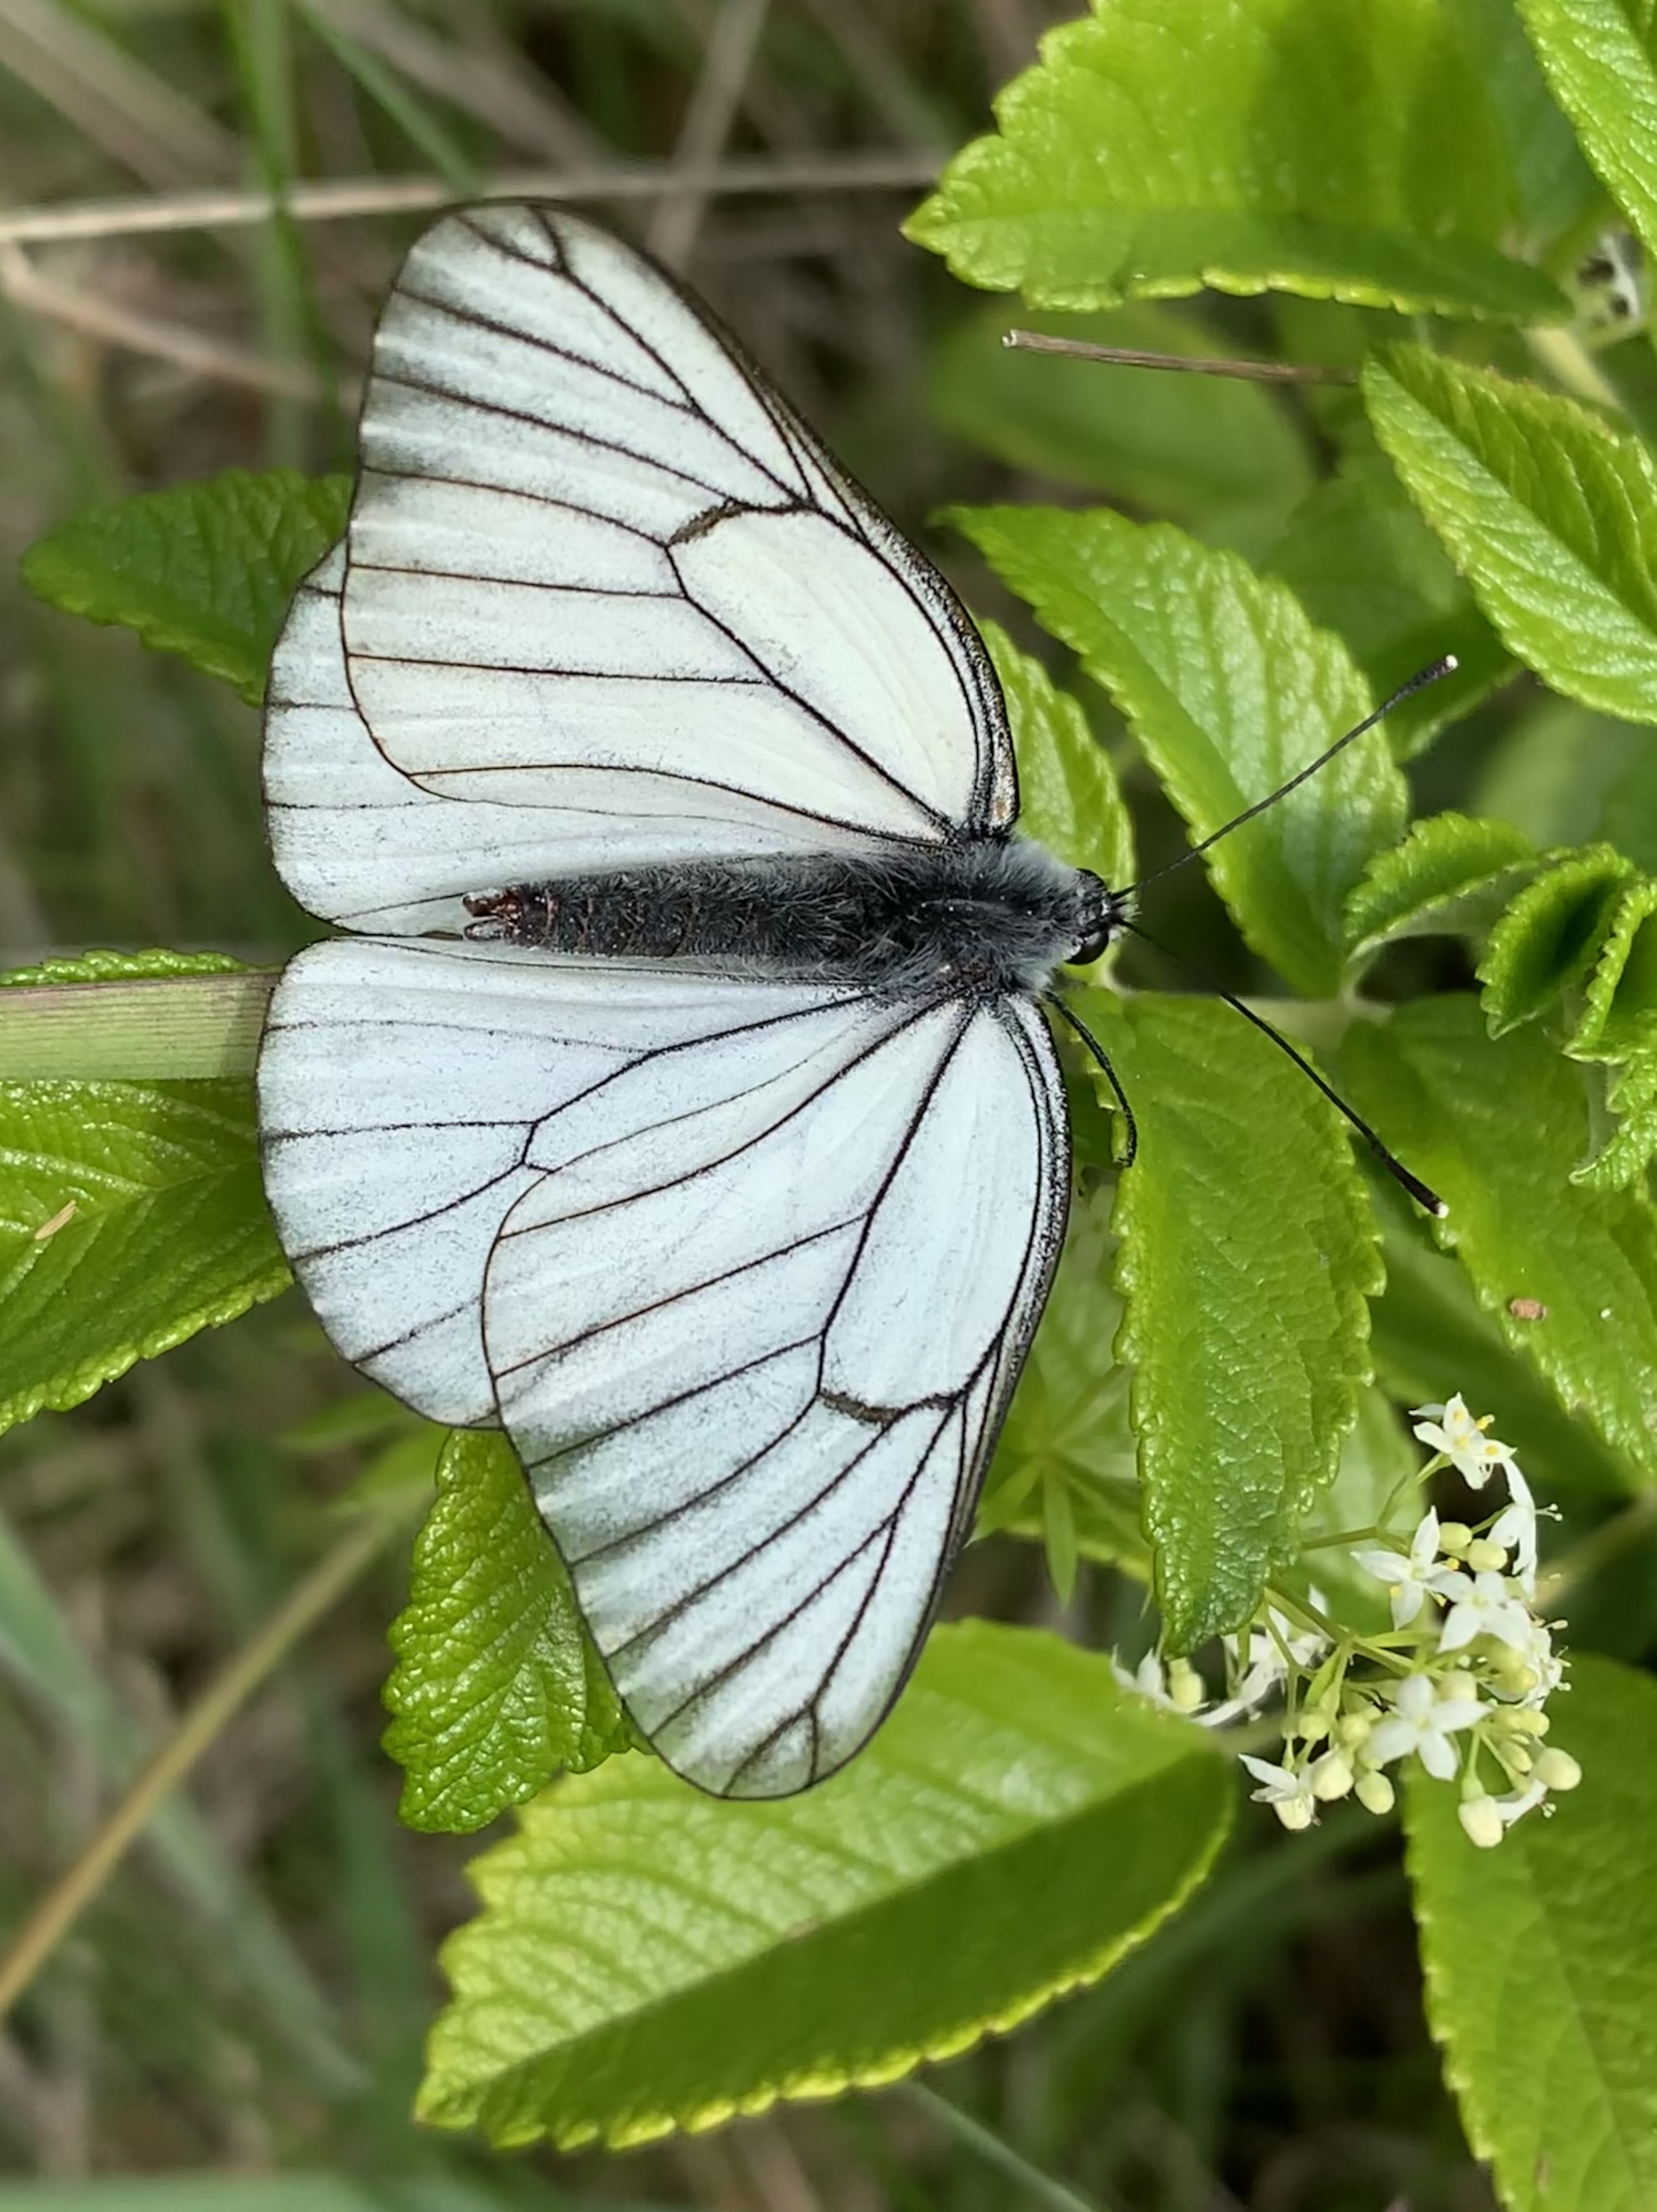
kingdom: Animalia
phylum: Arthropoda
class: Insecta
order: Lepidoptera
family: Pieridae
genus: Aporia
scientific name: Aporia crataegi
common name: Sortåret hvidvinge
